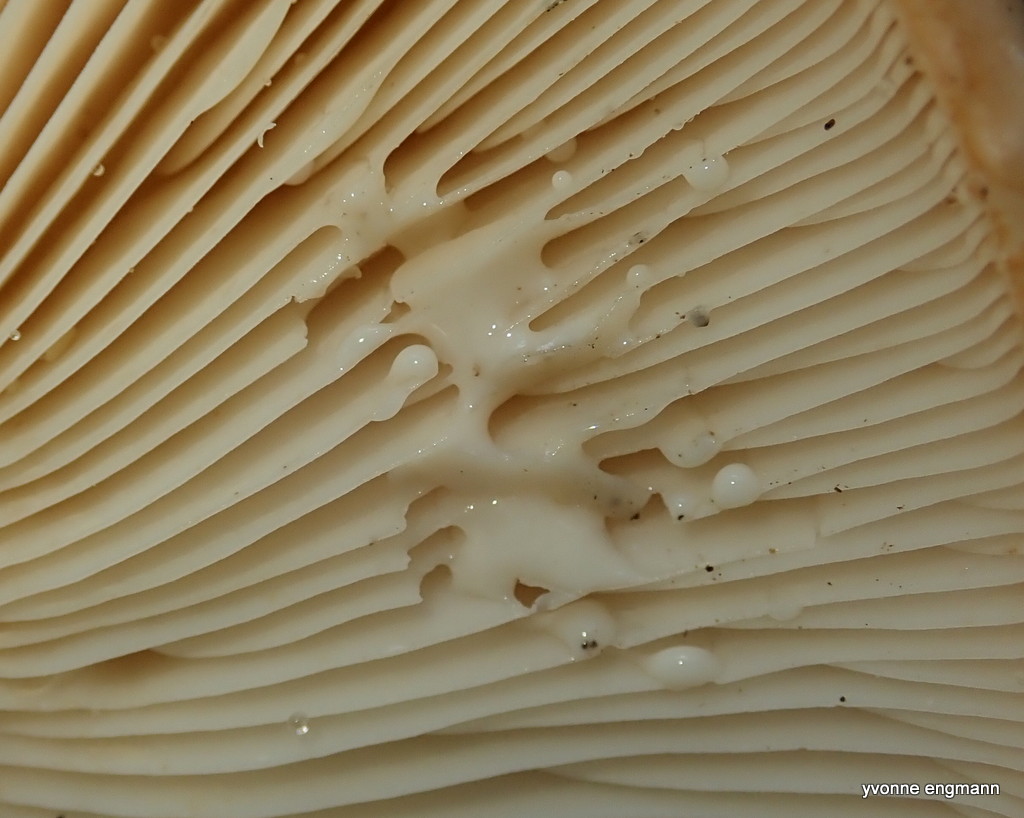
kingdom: Fungi
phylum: Basidiomycota
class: Agaricomycetes
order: Russulales
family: Russulaceae
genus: Lactarius
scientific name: Lactarius pallidus
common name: bleg mælkehat
